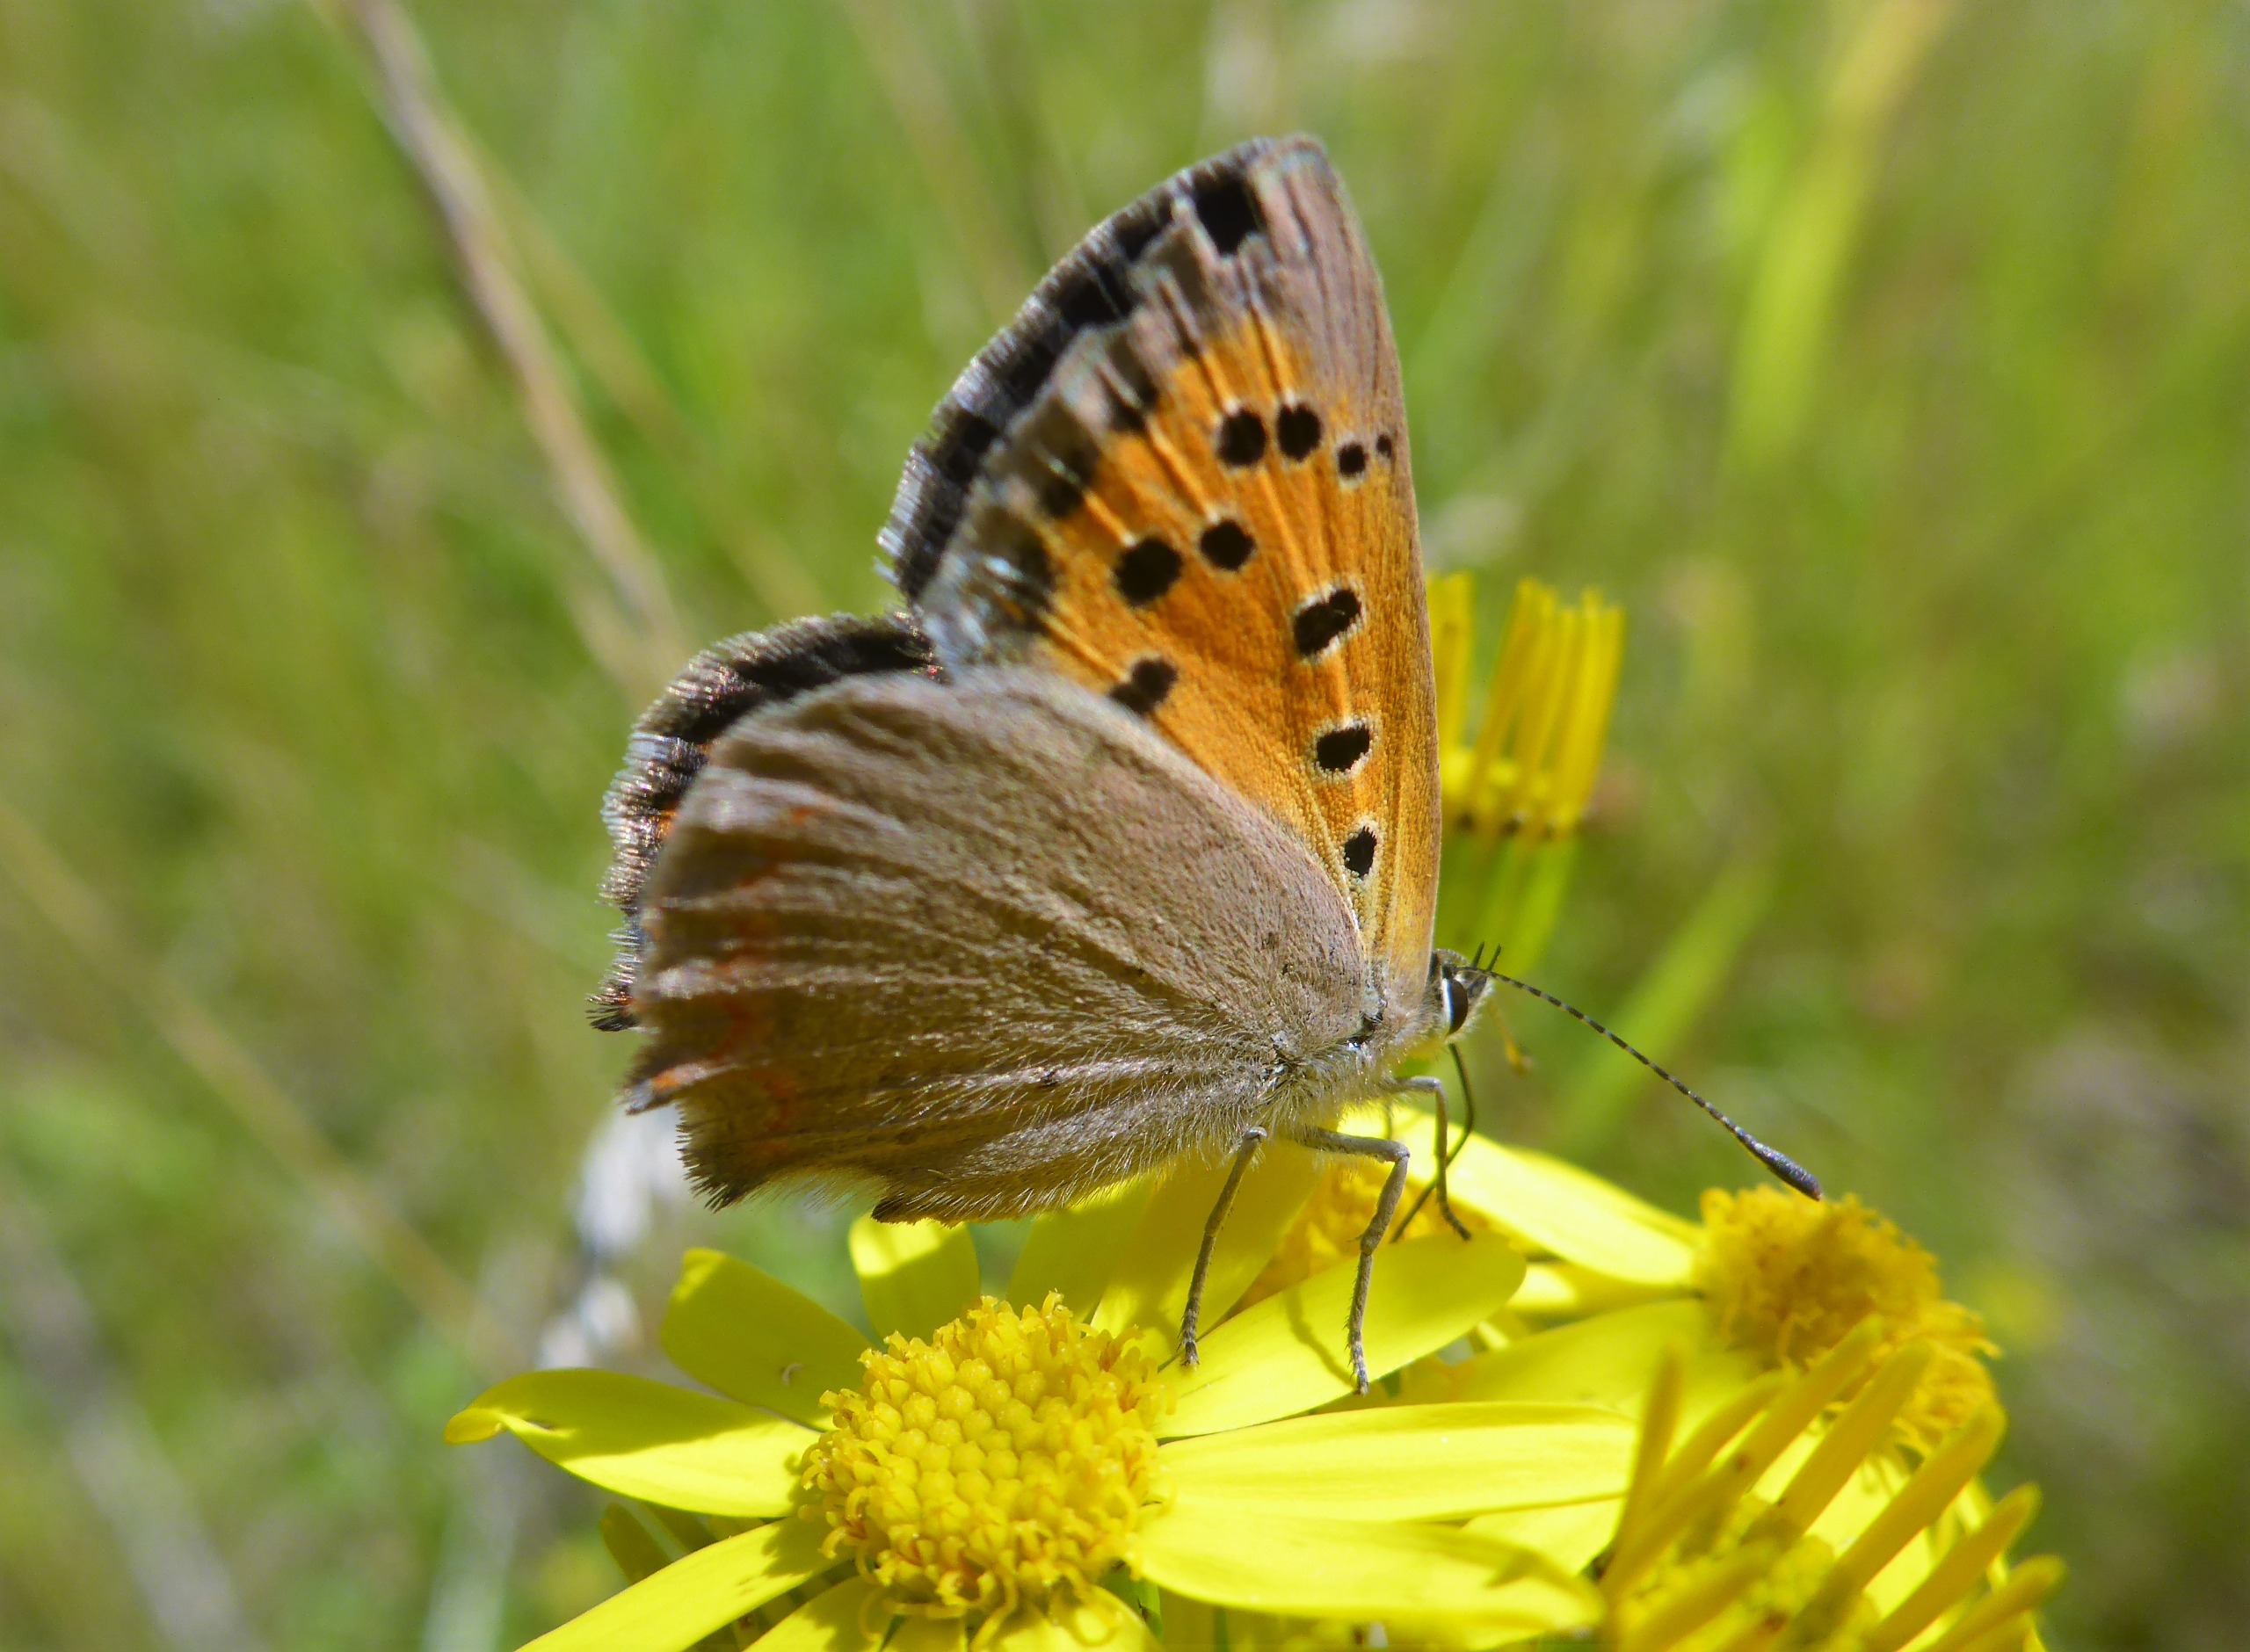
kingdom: Animalia
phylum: Arthropoda
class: Insecta
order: Lepidoptera
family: Lycaenidae
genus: Lycaena
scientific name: Lycaena phlaeas
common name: Lille ildfugl
